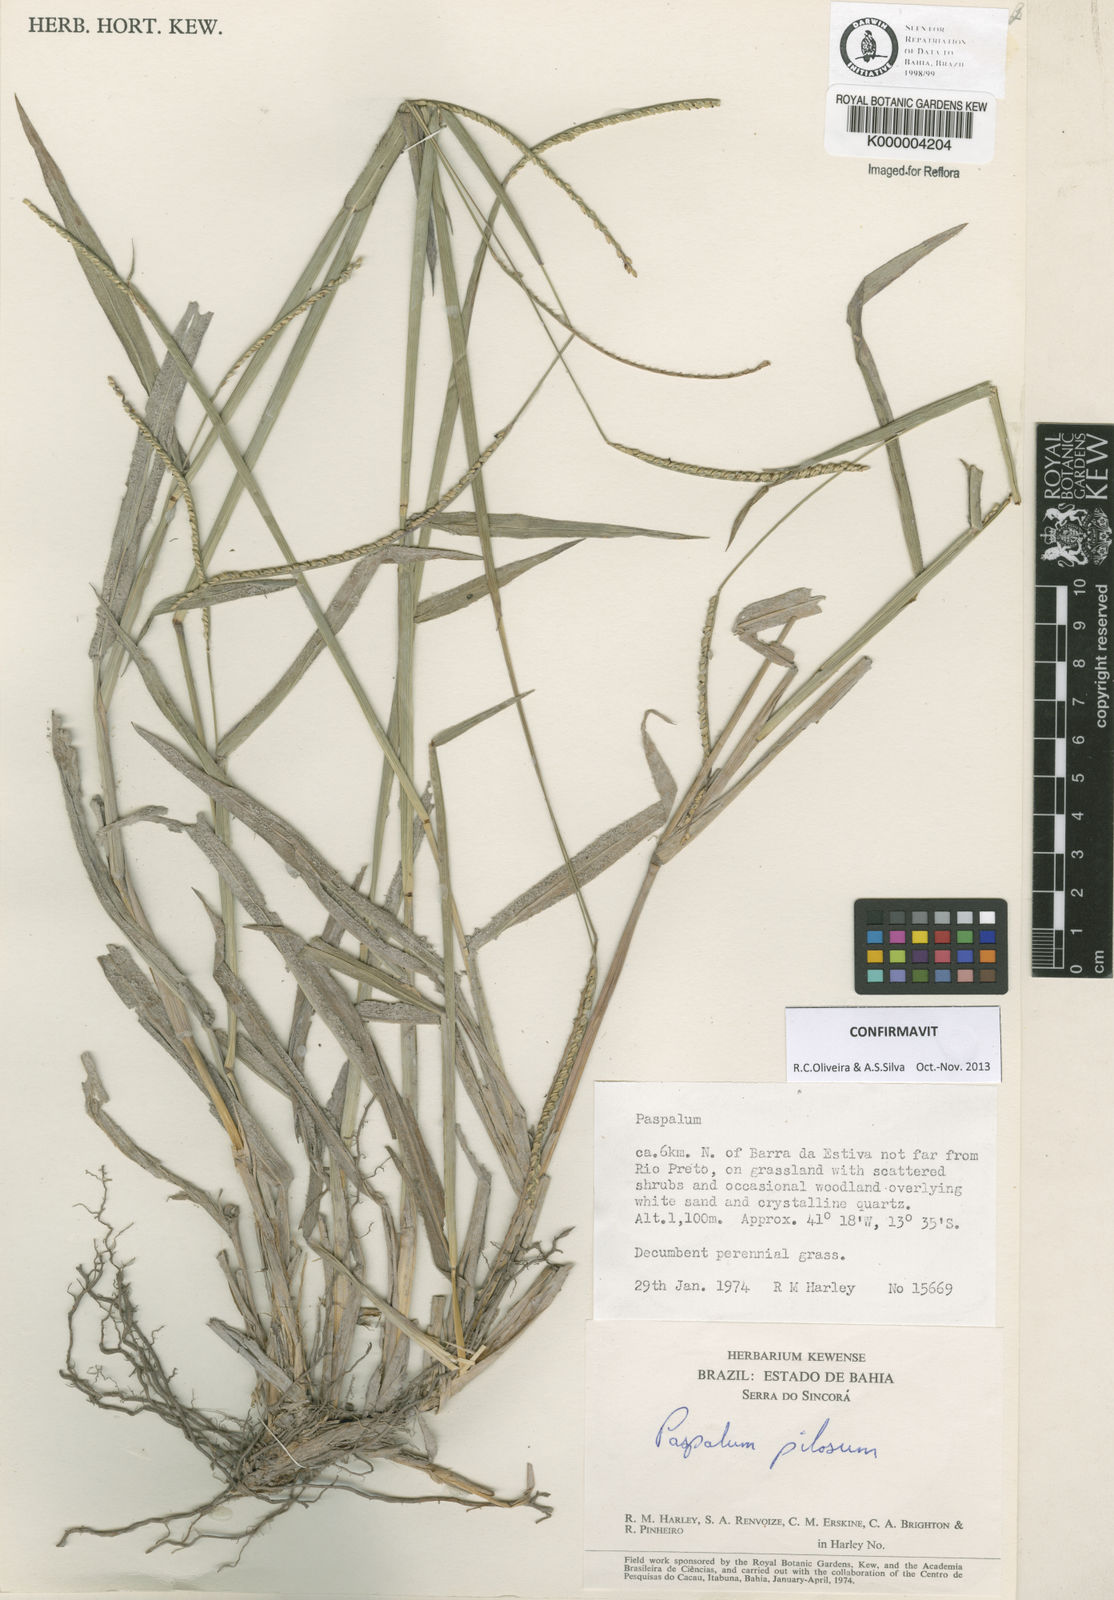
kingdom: Plantae
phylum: Tracheophyta
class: Liliopsida
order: Poales
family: Poaceae
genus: Paspalum
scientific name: Paspalum pilosum
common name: Crowngrass
